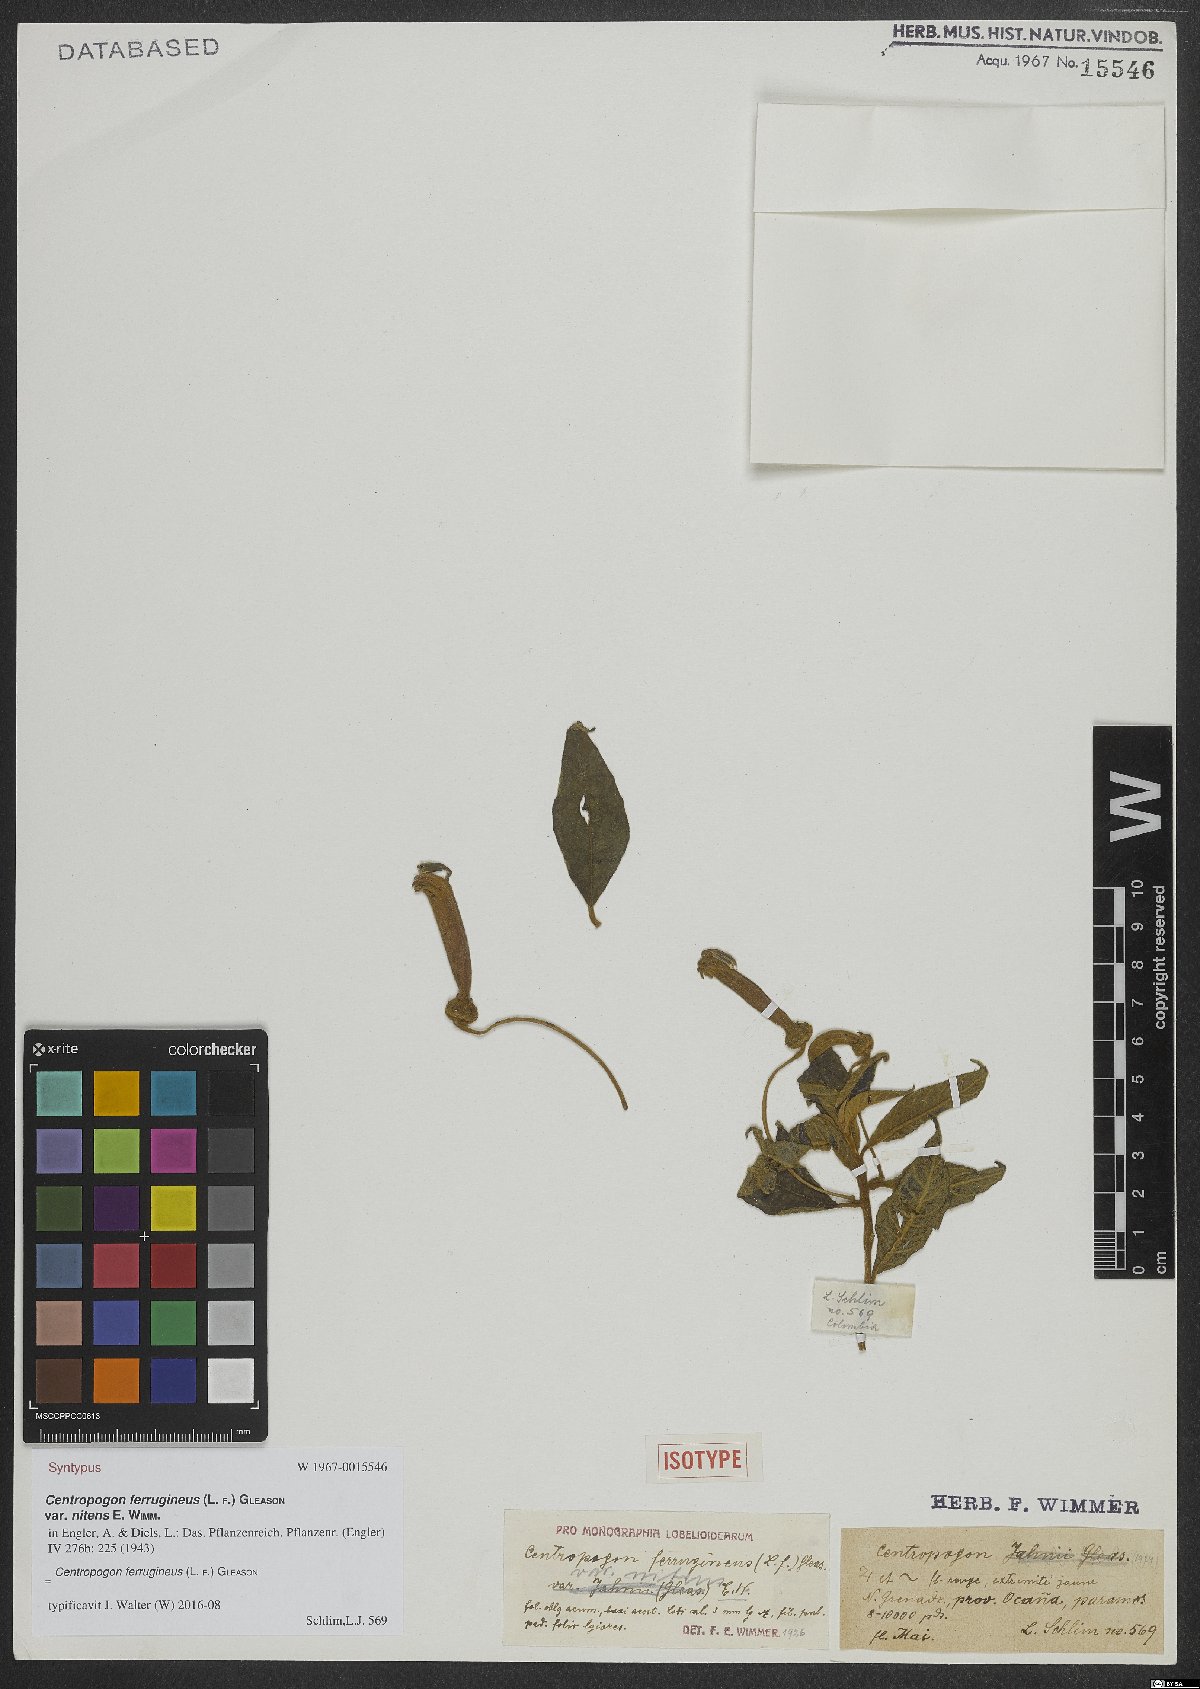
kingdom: Plantae
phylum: Tracheophyta
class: Magnoliopsida
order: Asterales
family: Campanulaceae
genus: Centropogon
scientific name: Centropogon ferrugineus
